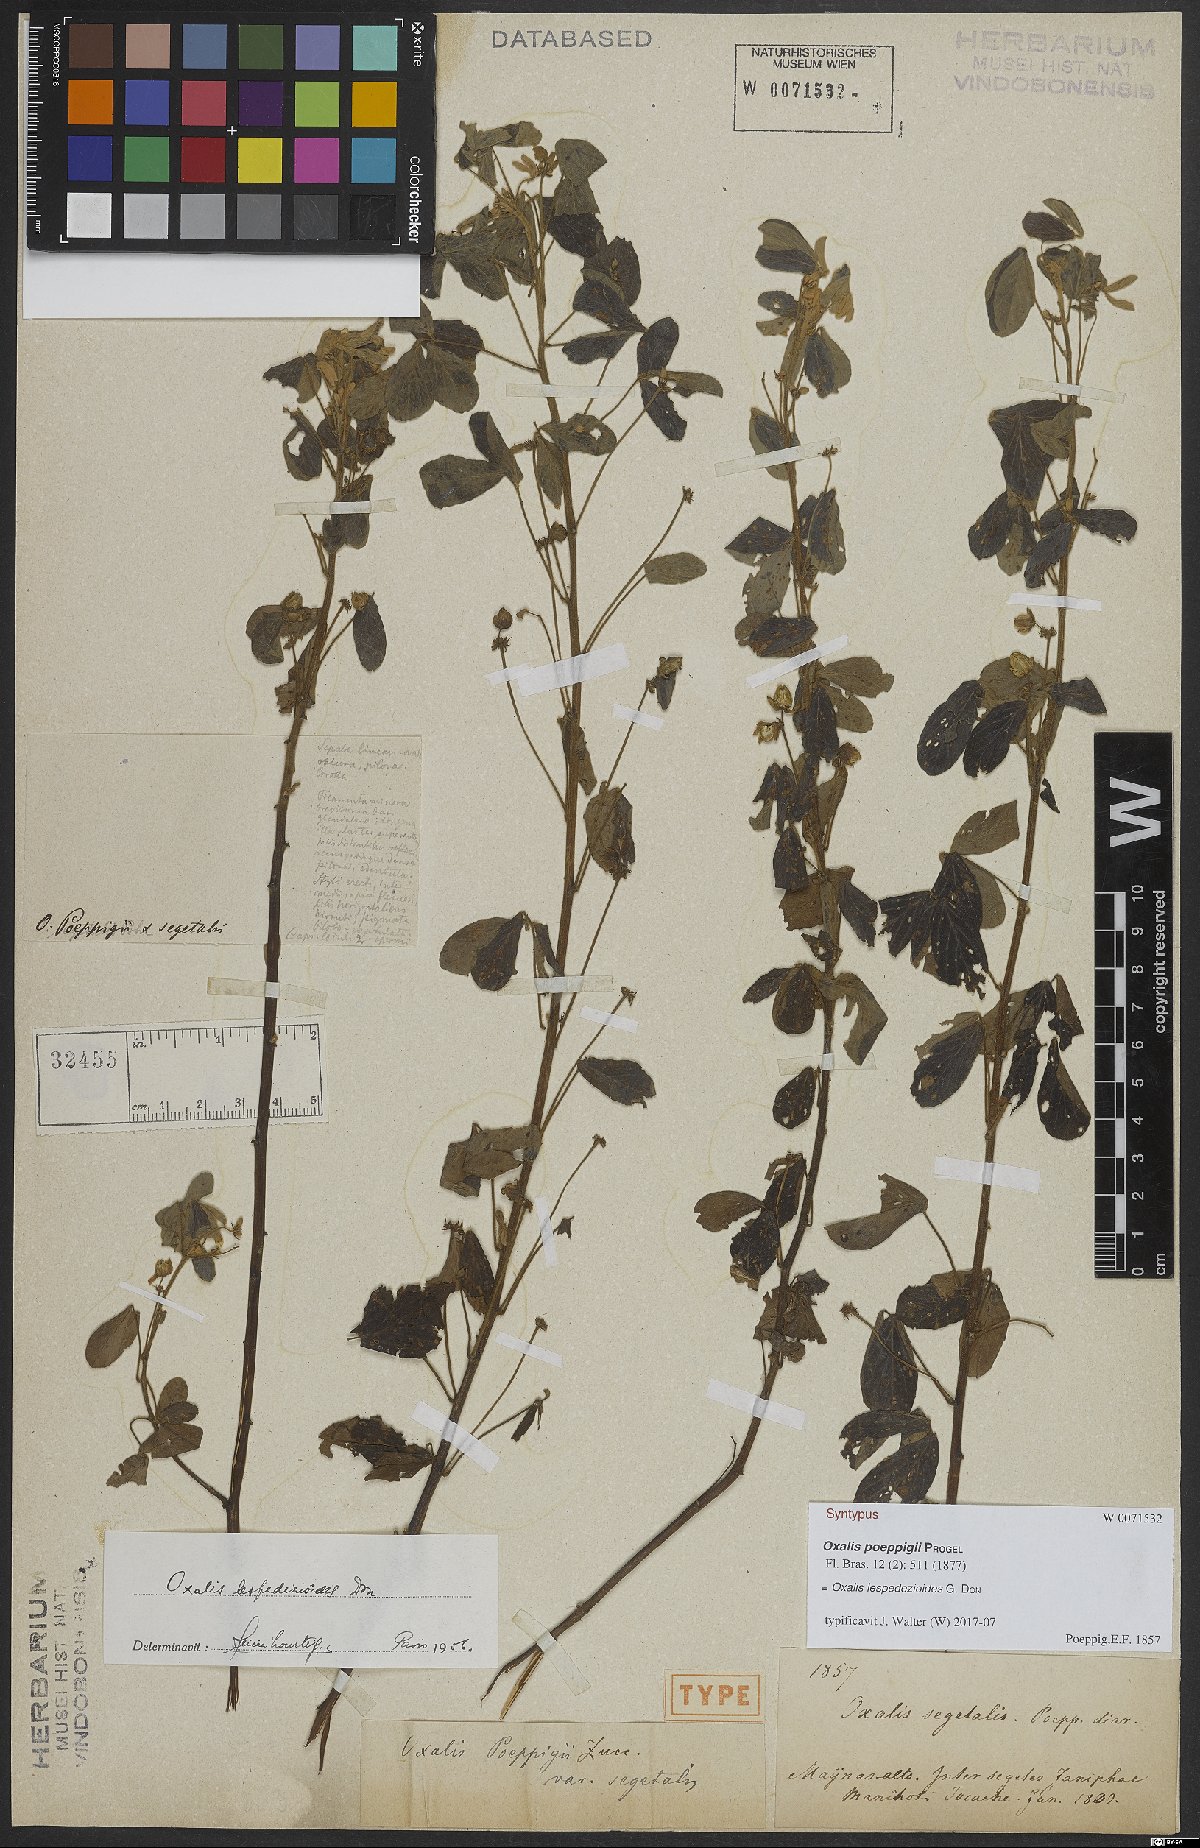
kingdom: Plantae
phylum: Tracheophyta
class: Magnoliopsida
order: Oxalidales
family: Oxalidaceae
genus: Oxalis
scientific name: Oxalis lespedezioides
